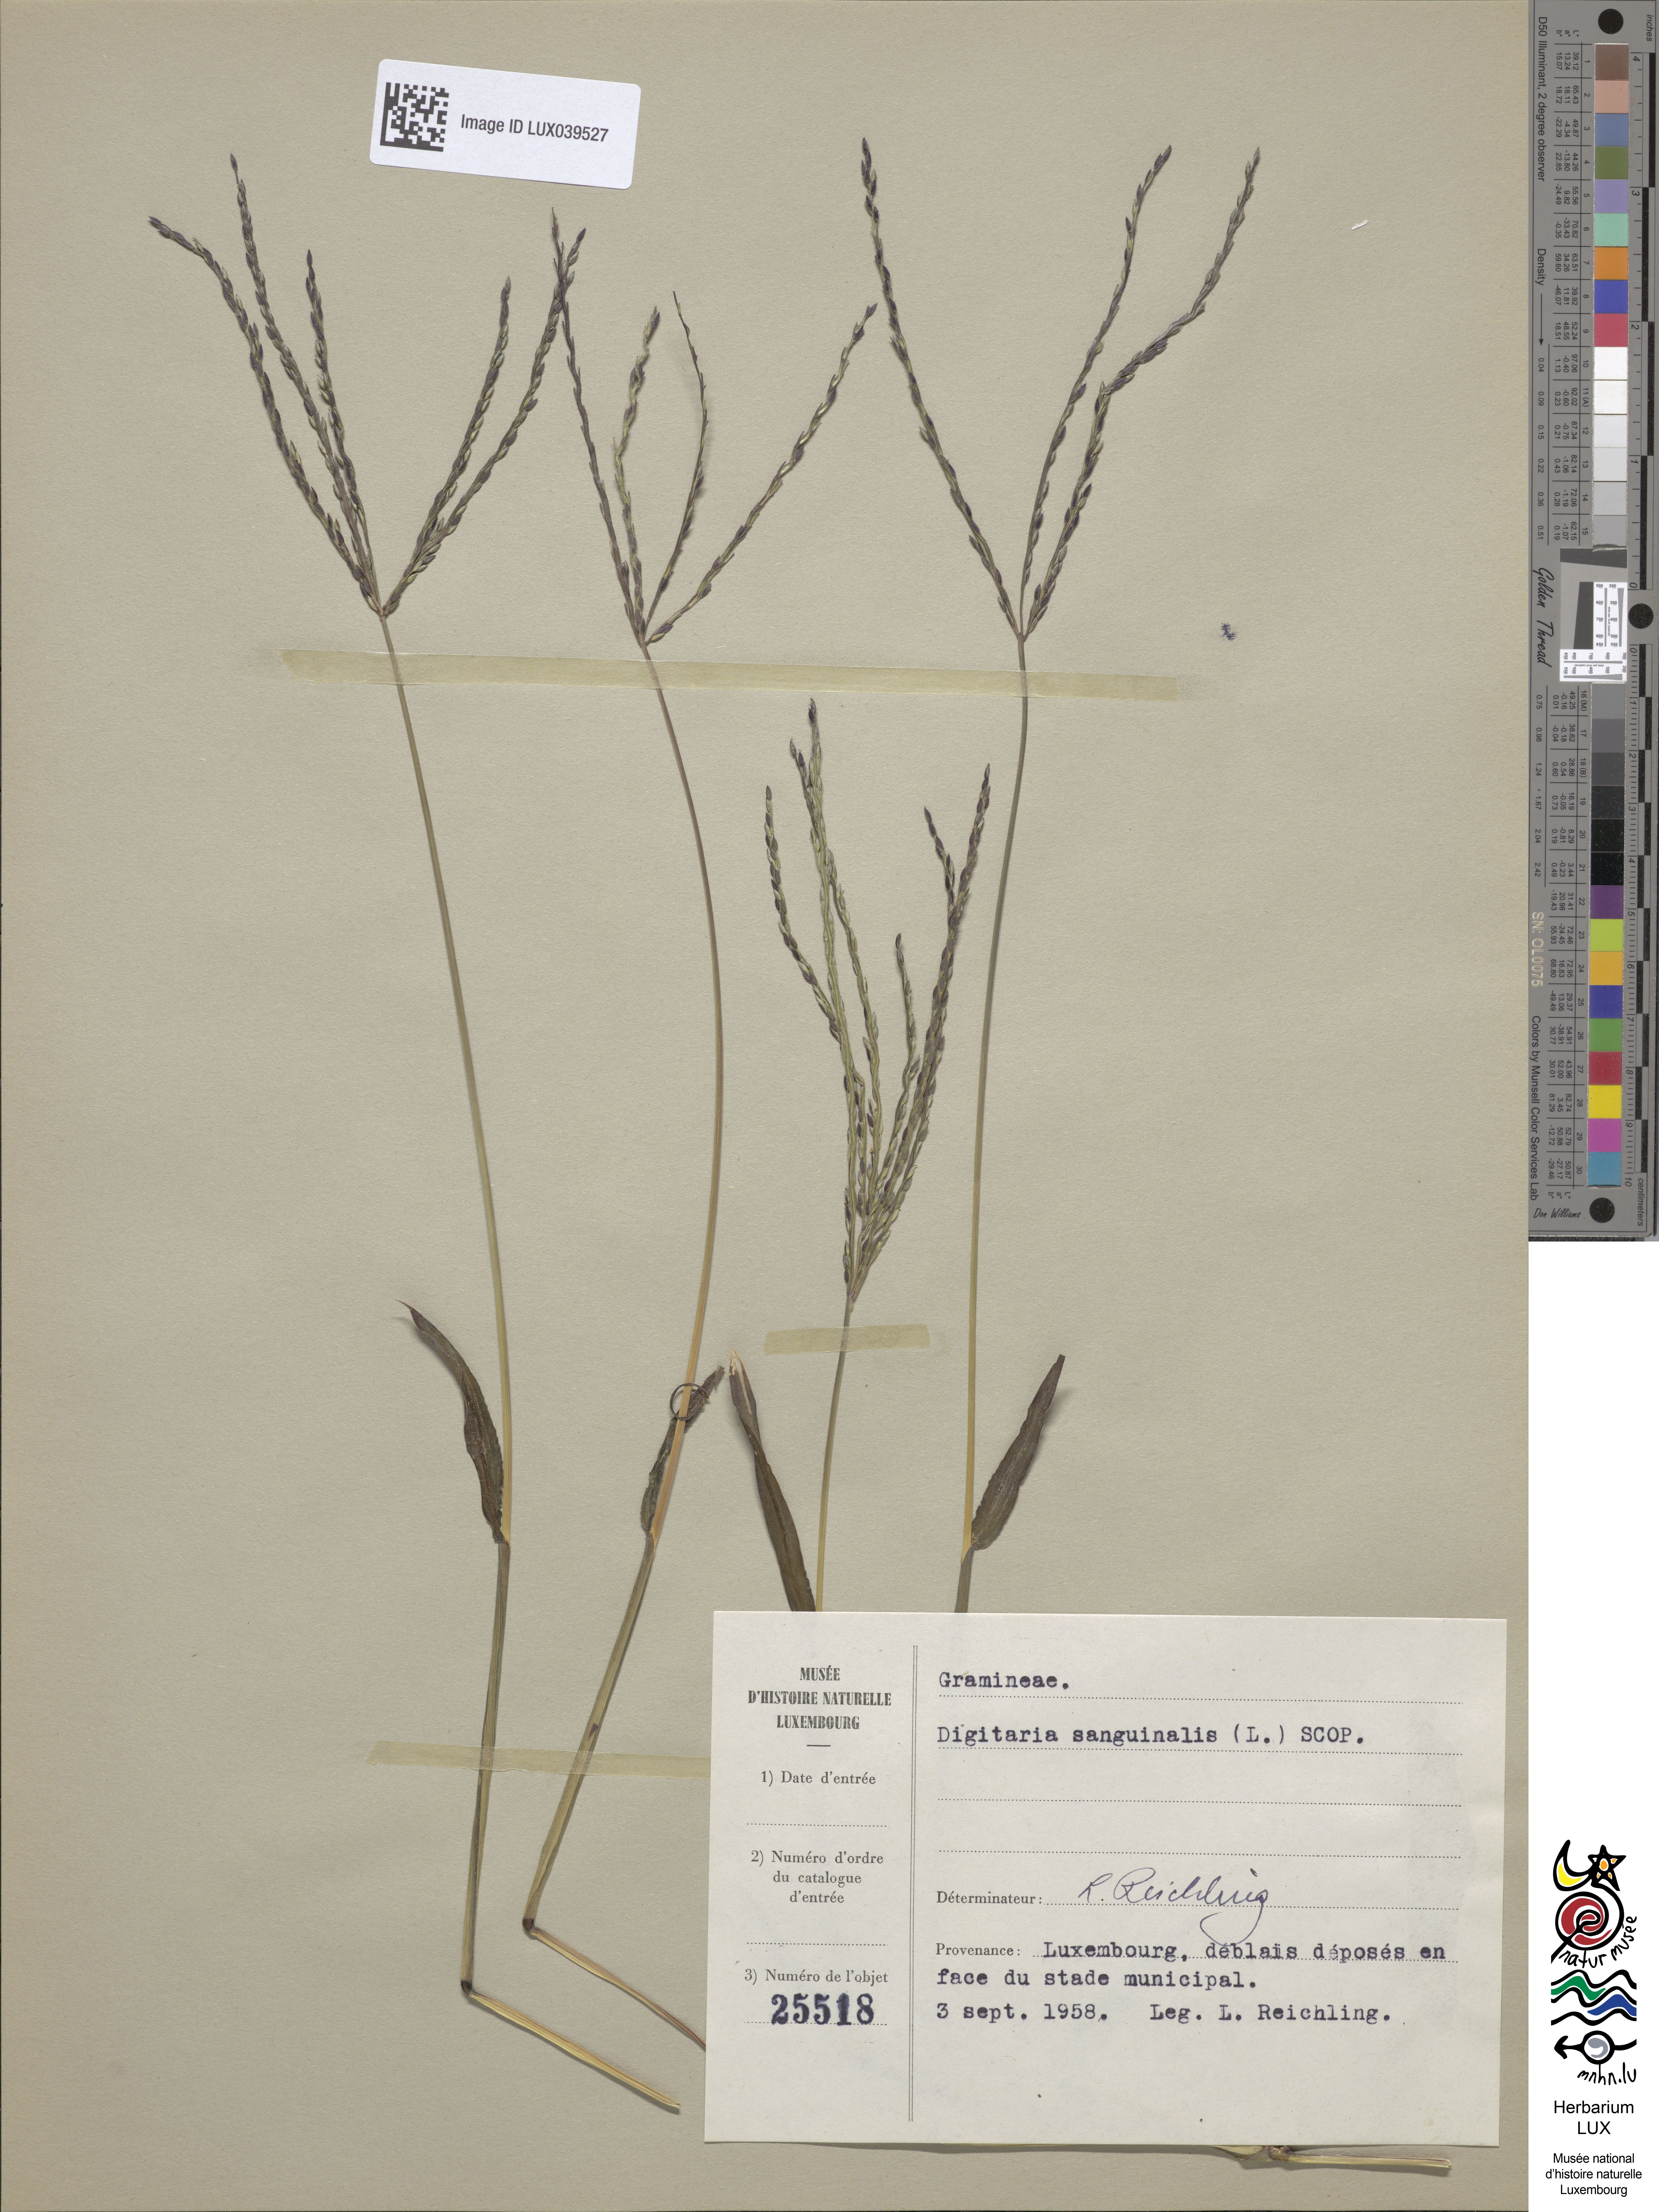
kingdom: Plantae
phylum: Tracheophyta
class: Liliopsida
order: Poales
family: Poaceae
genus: Digitaria
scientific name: Digitaria sanguinalis
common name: Hairy crabgrass
